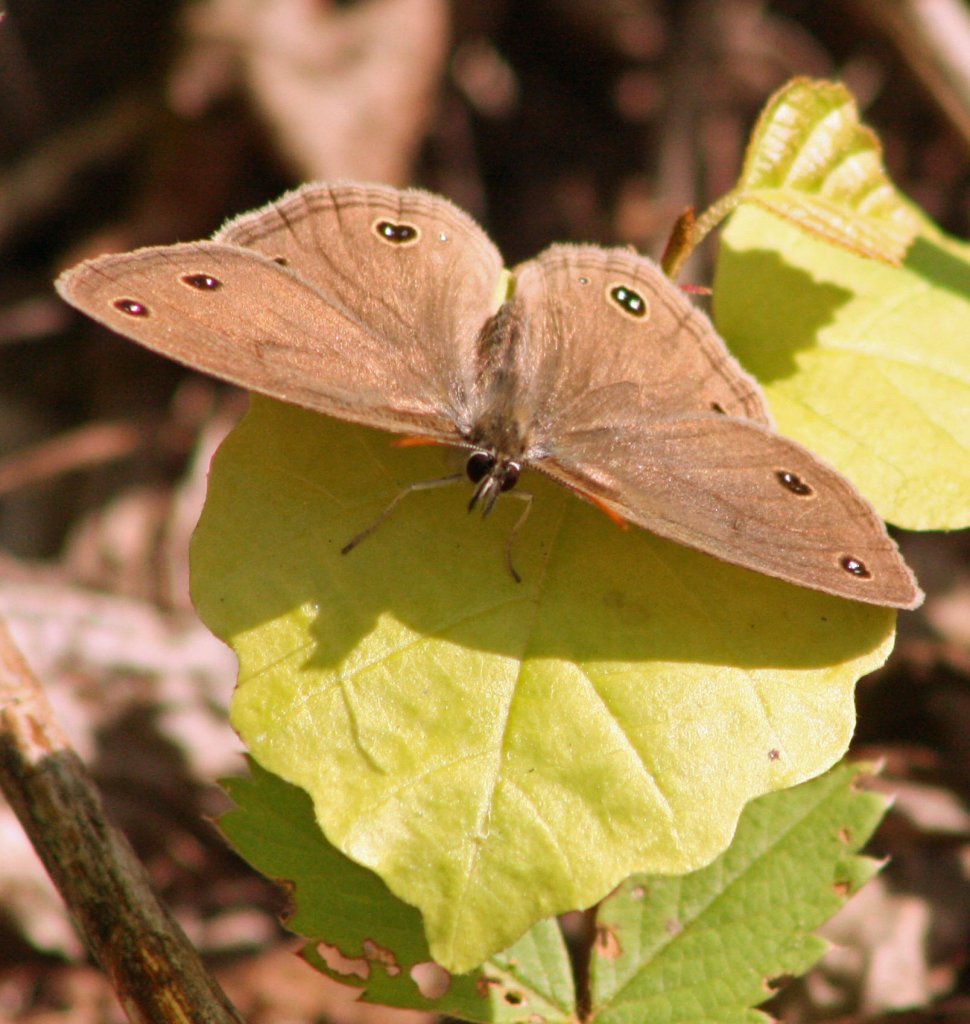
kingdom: Animalia
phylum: Arthropoda
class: Insecta
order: Lepidoptera
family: Nymphalidae
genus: Euptychia
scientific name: Euptychia cymela
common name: Little Wood Satyr
